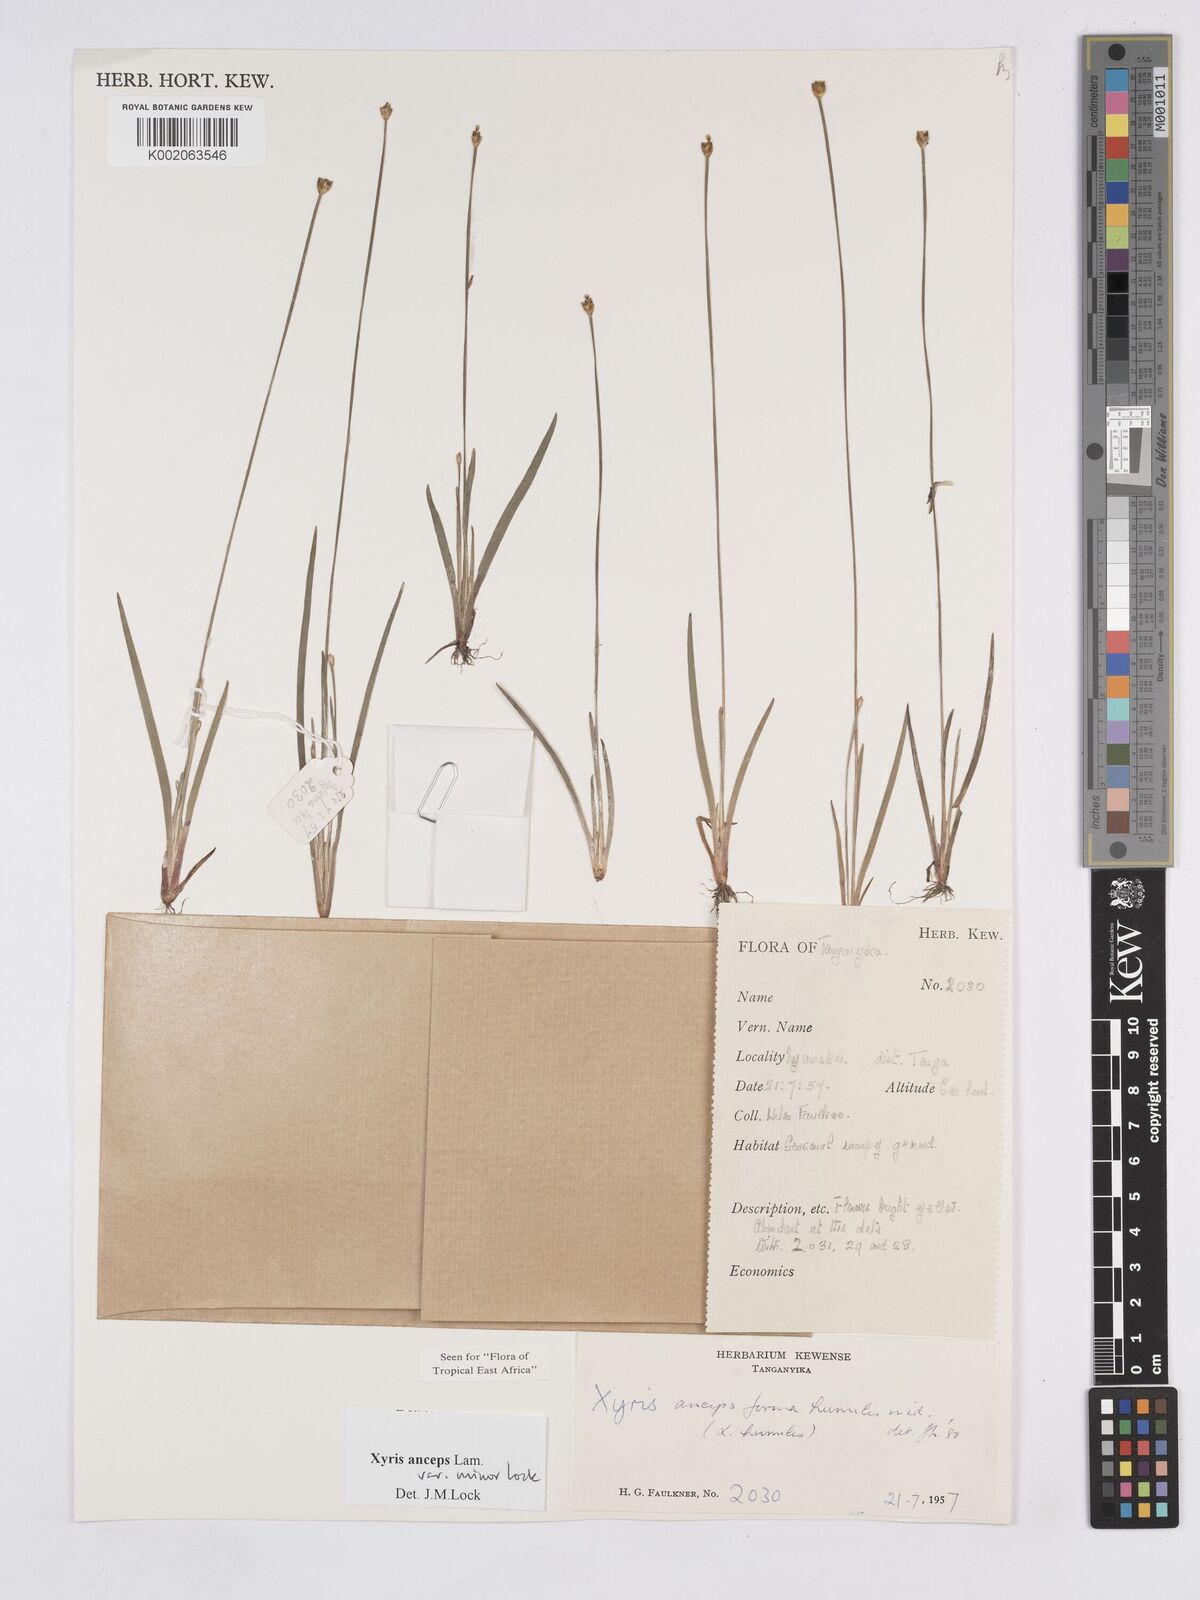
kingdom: Plantae
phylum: Tracheophyta
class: Liliopsida
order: Poales
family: Xyridaceae
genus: Xyris
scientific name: Xyris anceps
